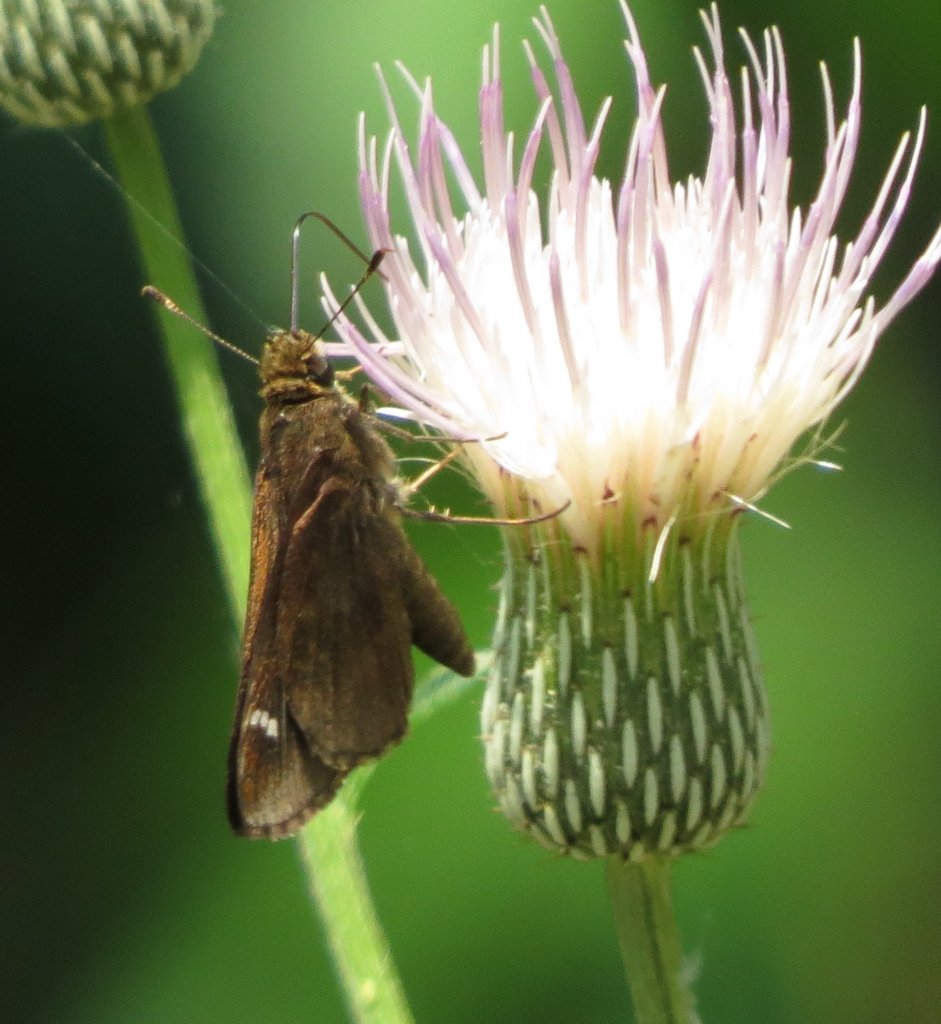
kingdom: Animalia
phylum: Arthropoda
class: Insecta
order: Lepidoptera
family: Hesperiidae
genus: Lerema
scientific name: Lerema accius
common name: Clouded Skipper
